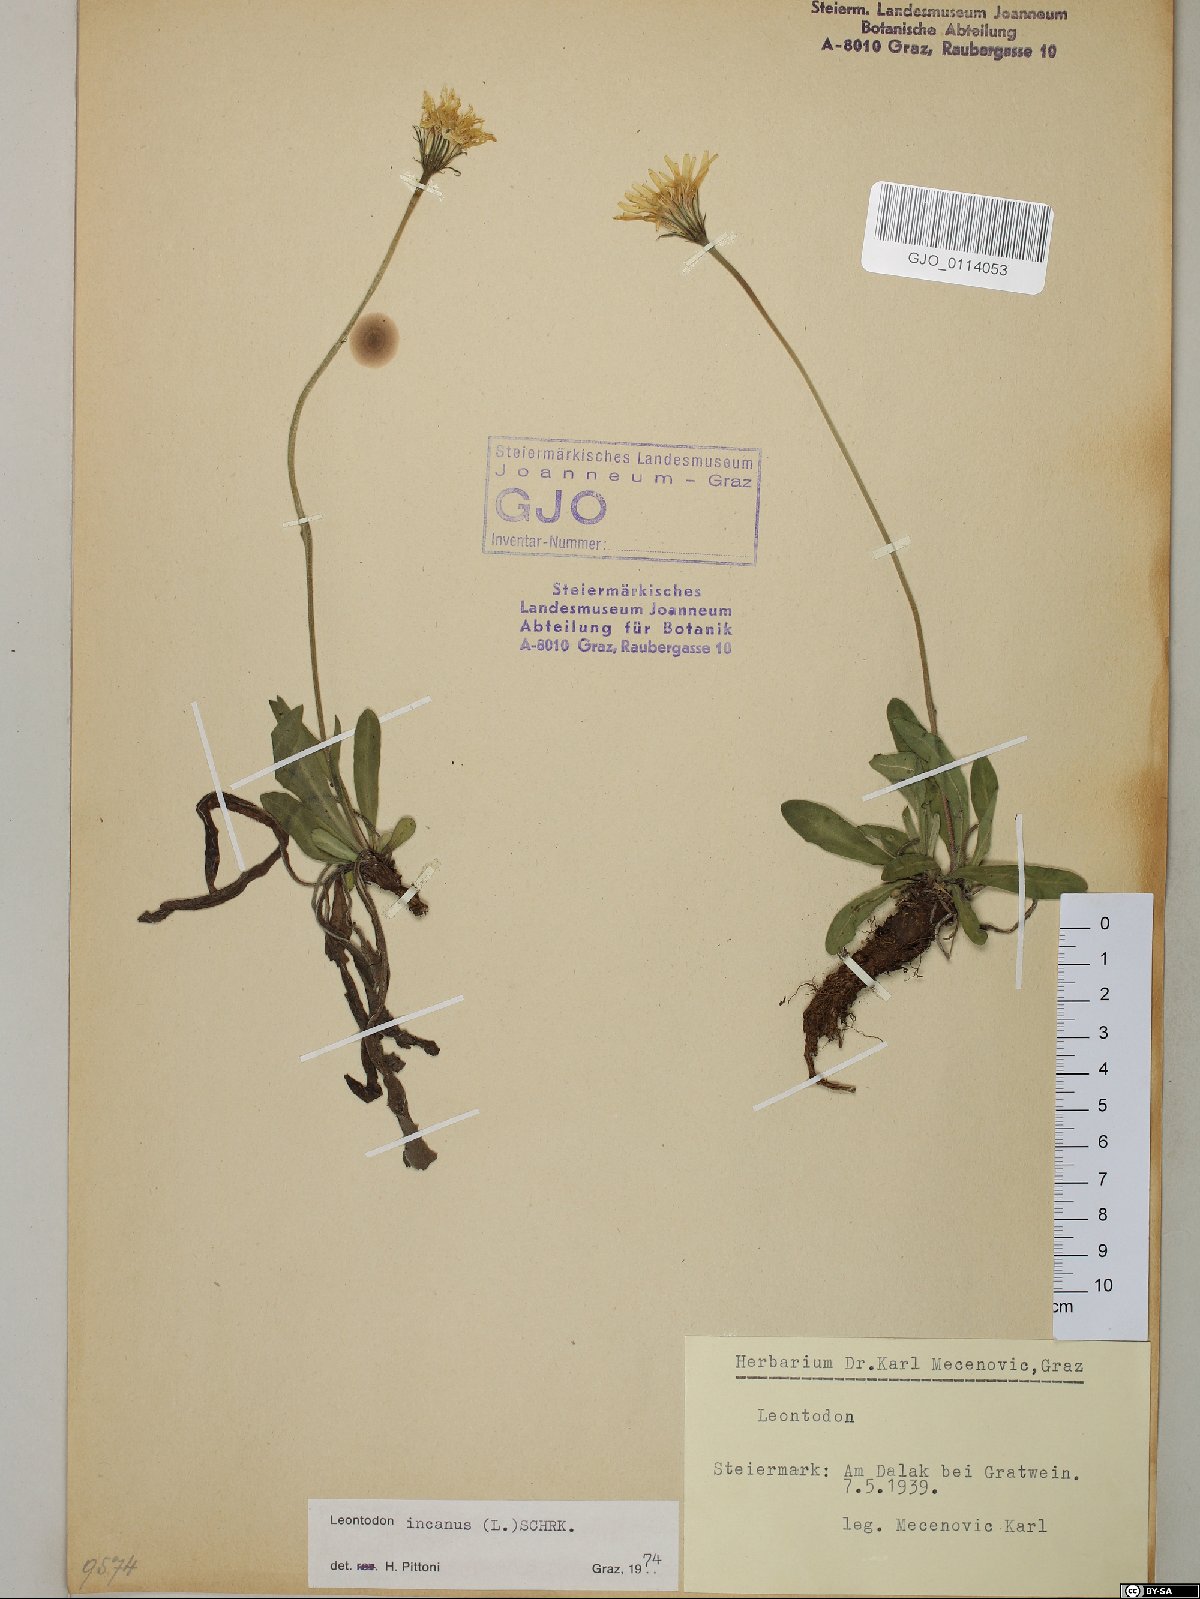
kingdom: Plantae
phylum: Tracheophyta
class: Magnoliopsida
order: Asterales
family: Asteraceae
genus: Leontodon
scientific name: Leontodon incanus
